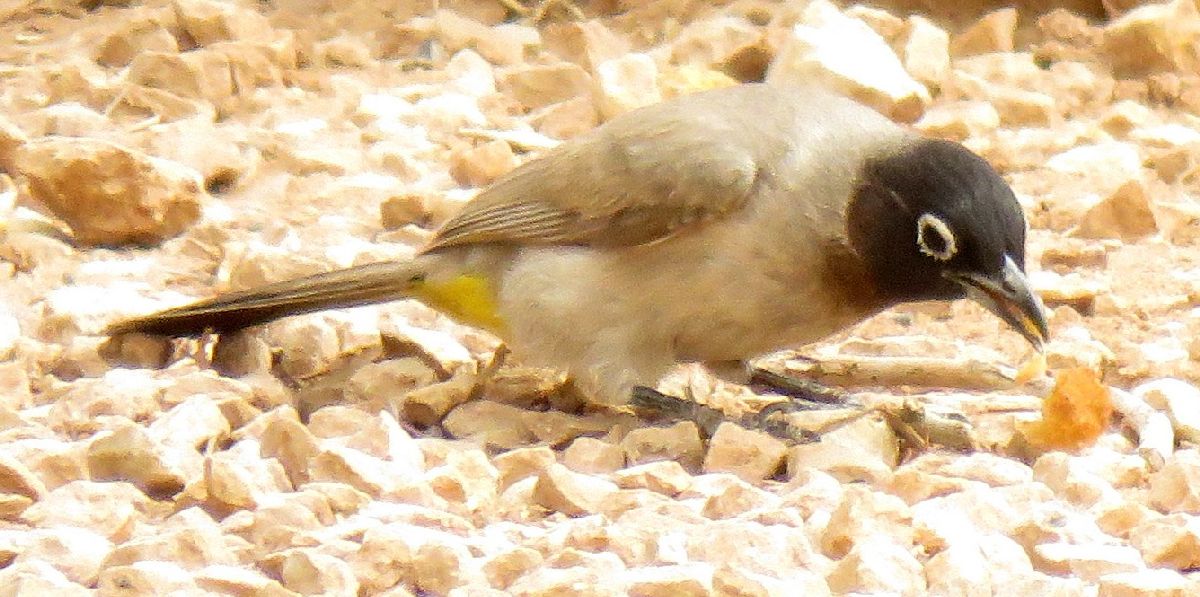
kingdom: Animalia
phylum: Chordata
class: Aves
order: Passeriformes
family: Pycnonotidae
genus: Pycnonotus
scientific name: Pycnonotus xanthopygos
